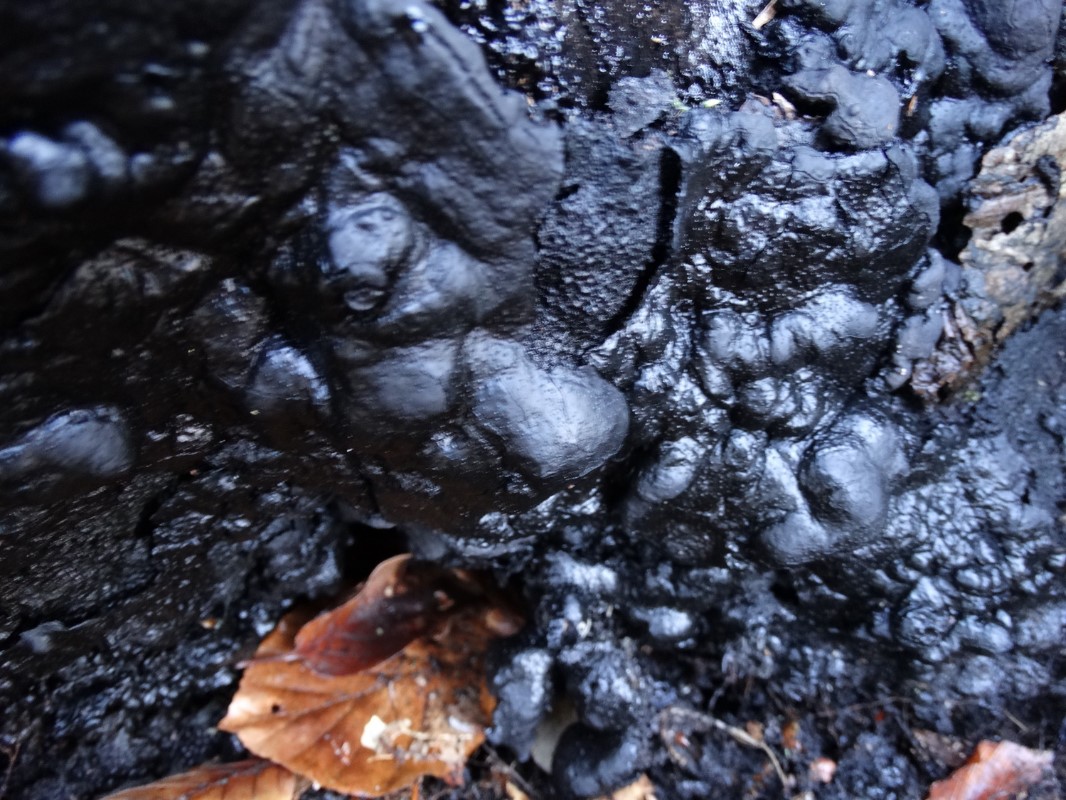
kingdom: Fungi
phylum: Ascomycota
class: Sordariomycetes
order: Xylariales
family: Xylariaceae
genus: Kretzschmaria
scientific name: Kretzschmaria deusta
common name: stor kulsvamp
